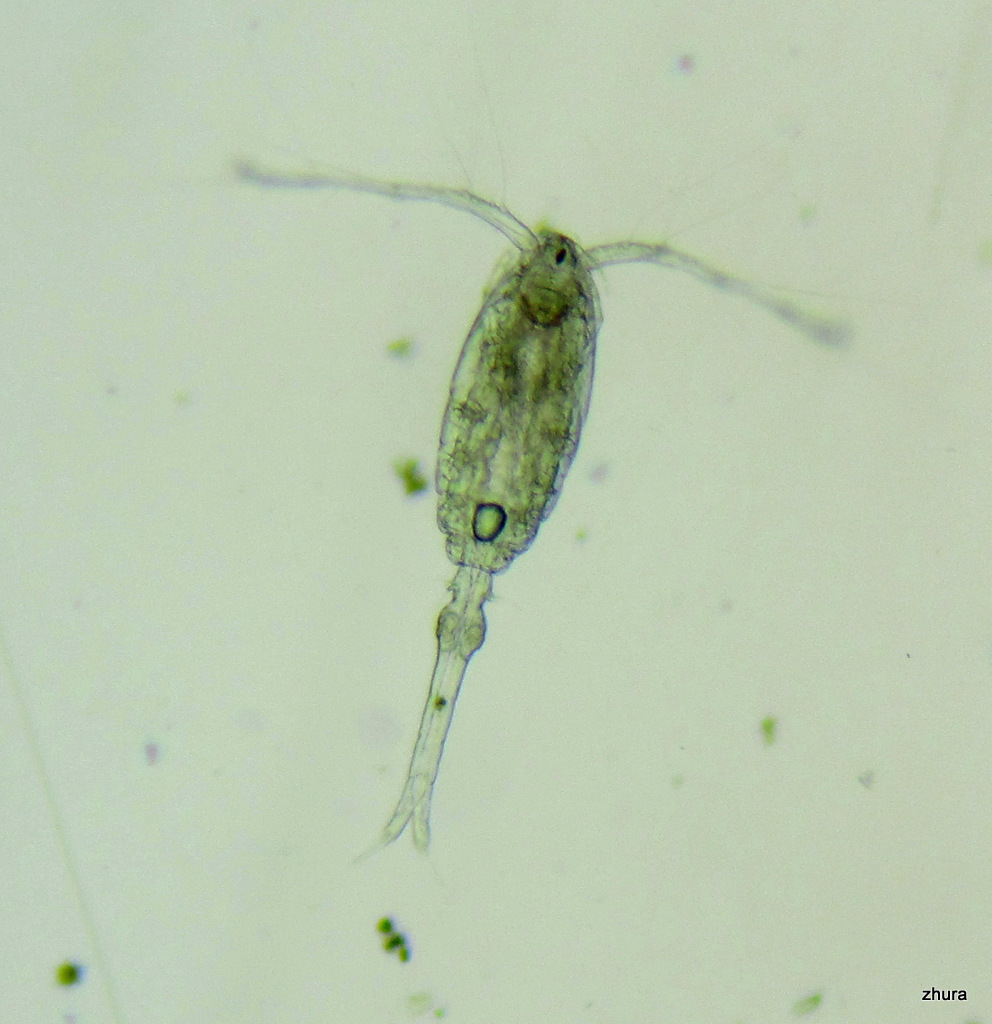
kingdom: Animalia
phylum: Arthropoda
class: Copepoda
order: Cyclopoida
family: Oithonidae
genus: Oithona
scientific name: Oithona similis
